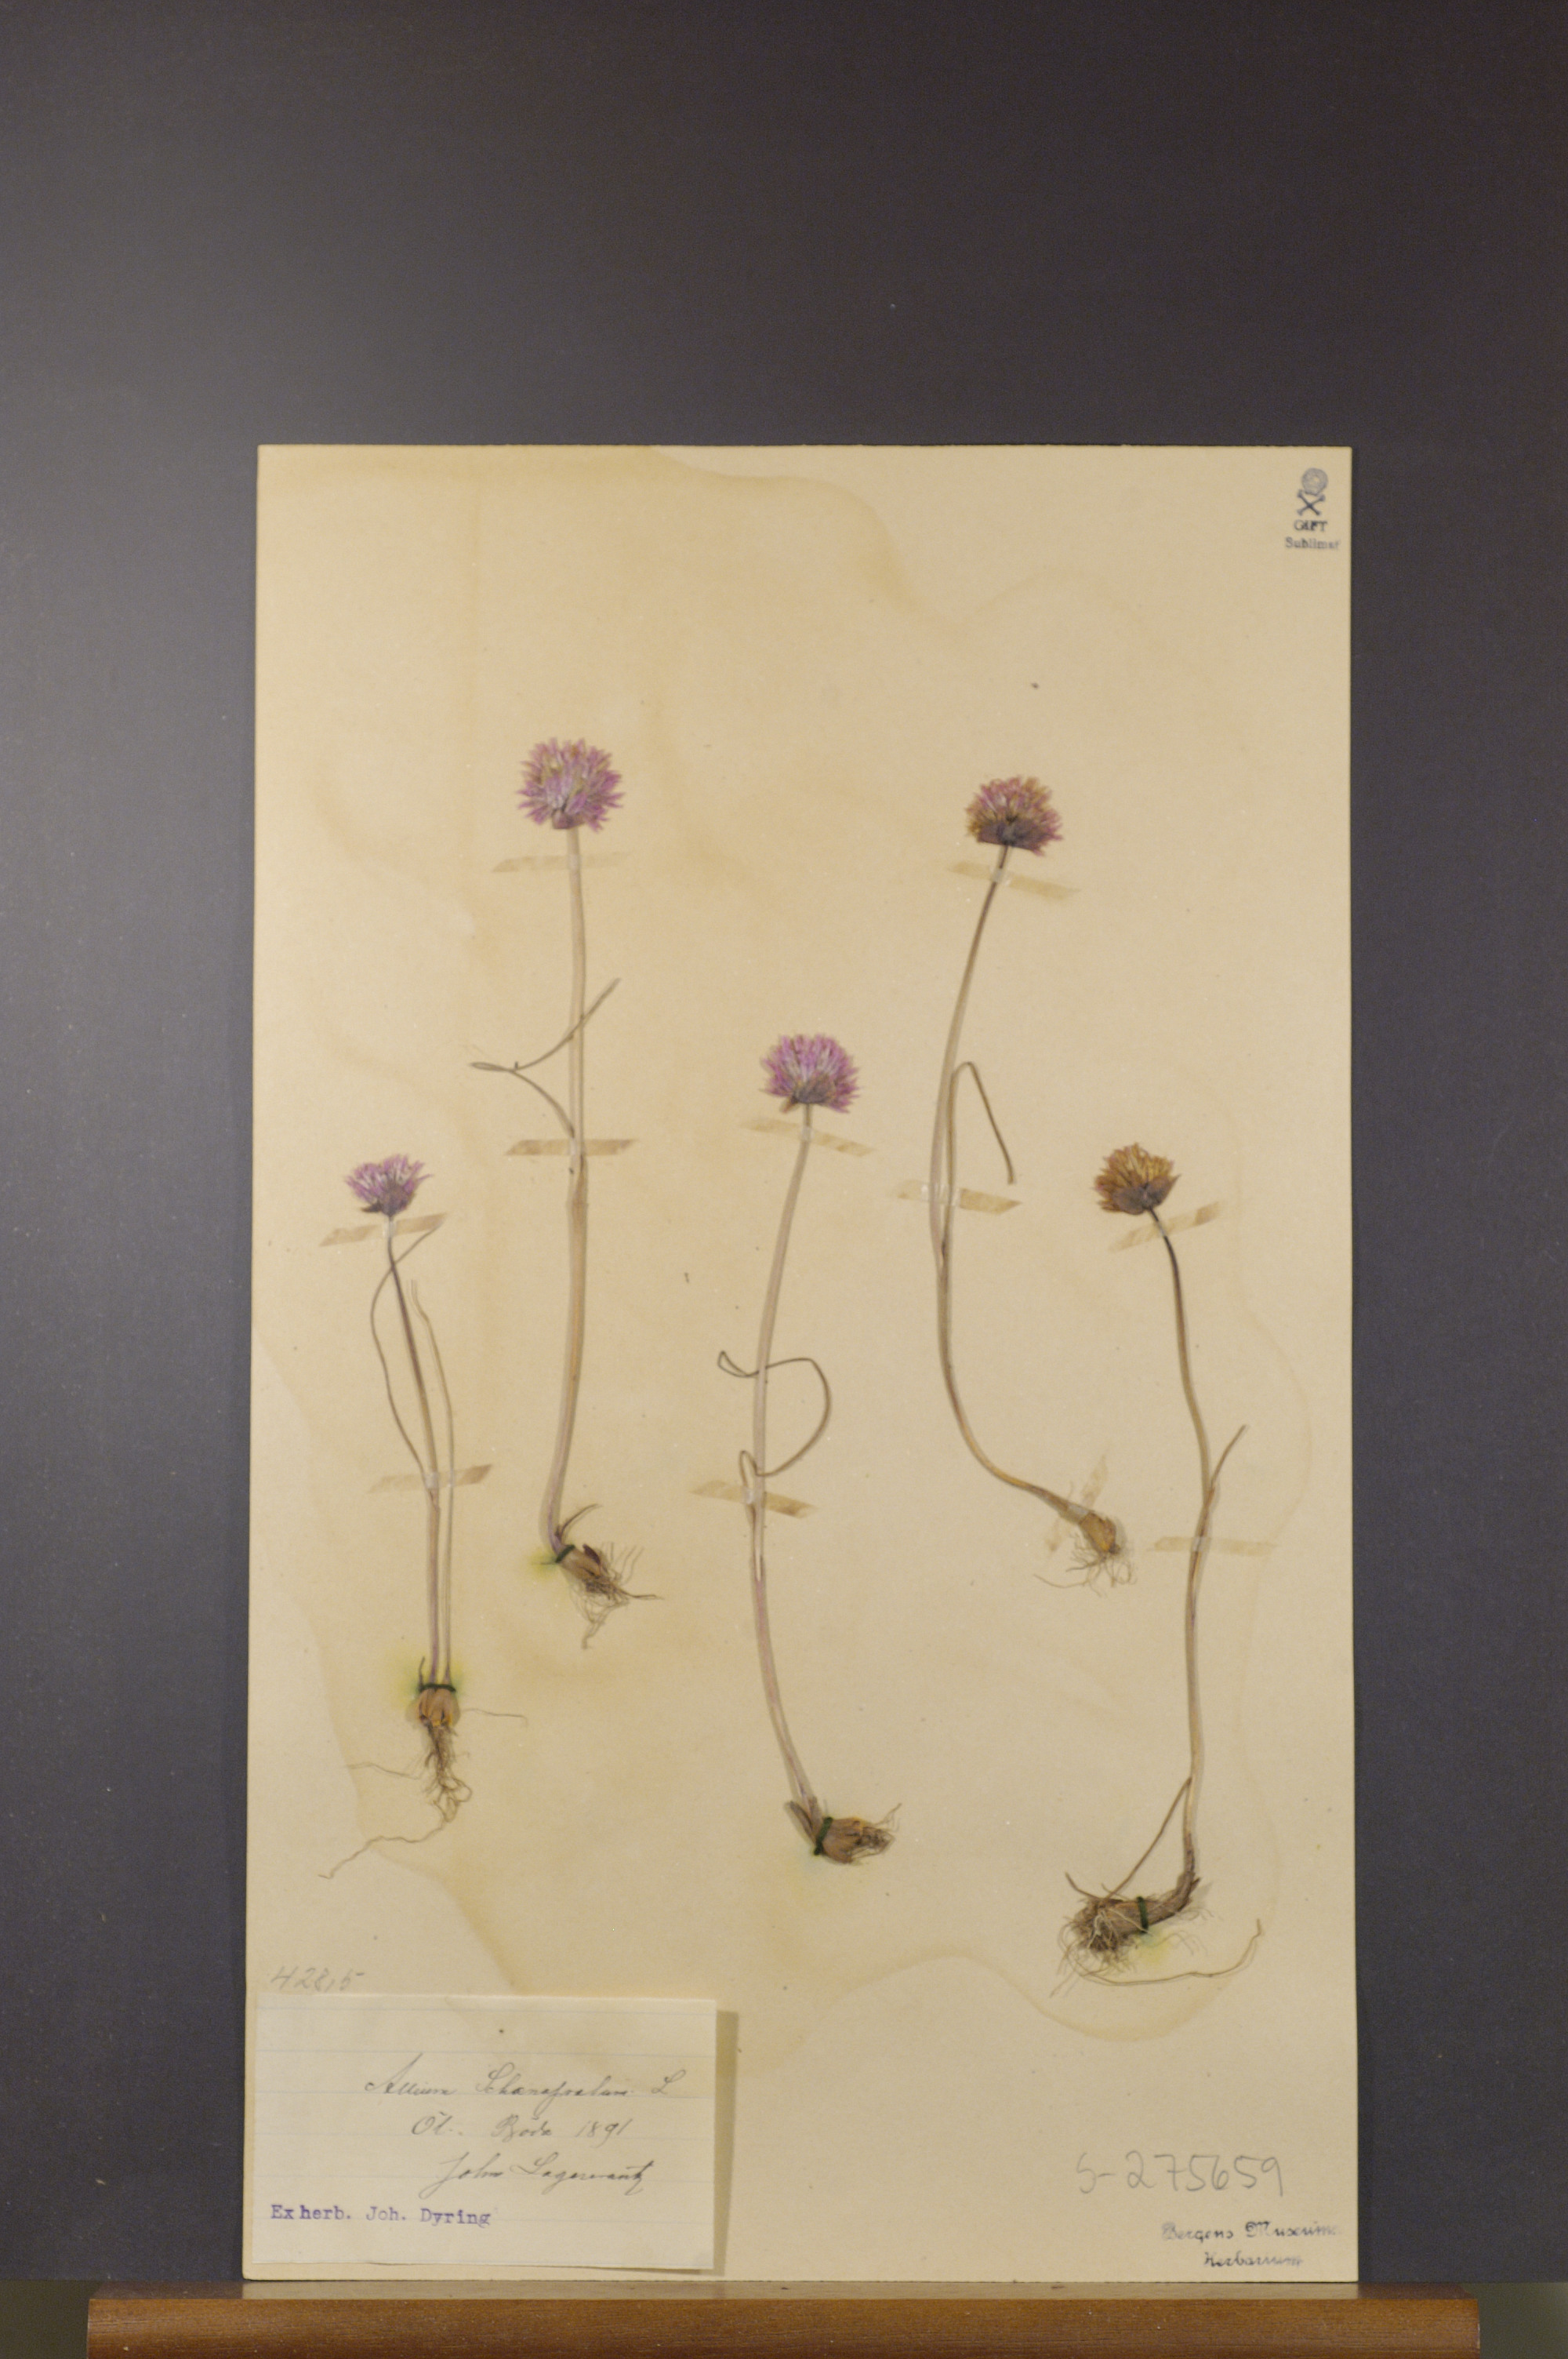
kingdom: Plantae
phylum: Tracheophyta
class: Liliopsida
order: Asparagales
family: Amaryllidaceae
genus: Allium
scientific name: Allium schoenoprasum
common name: Chives
